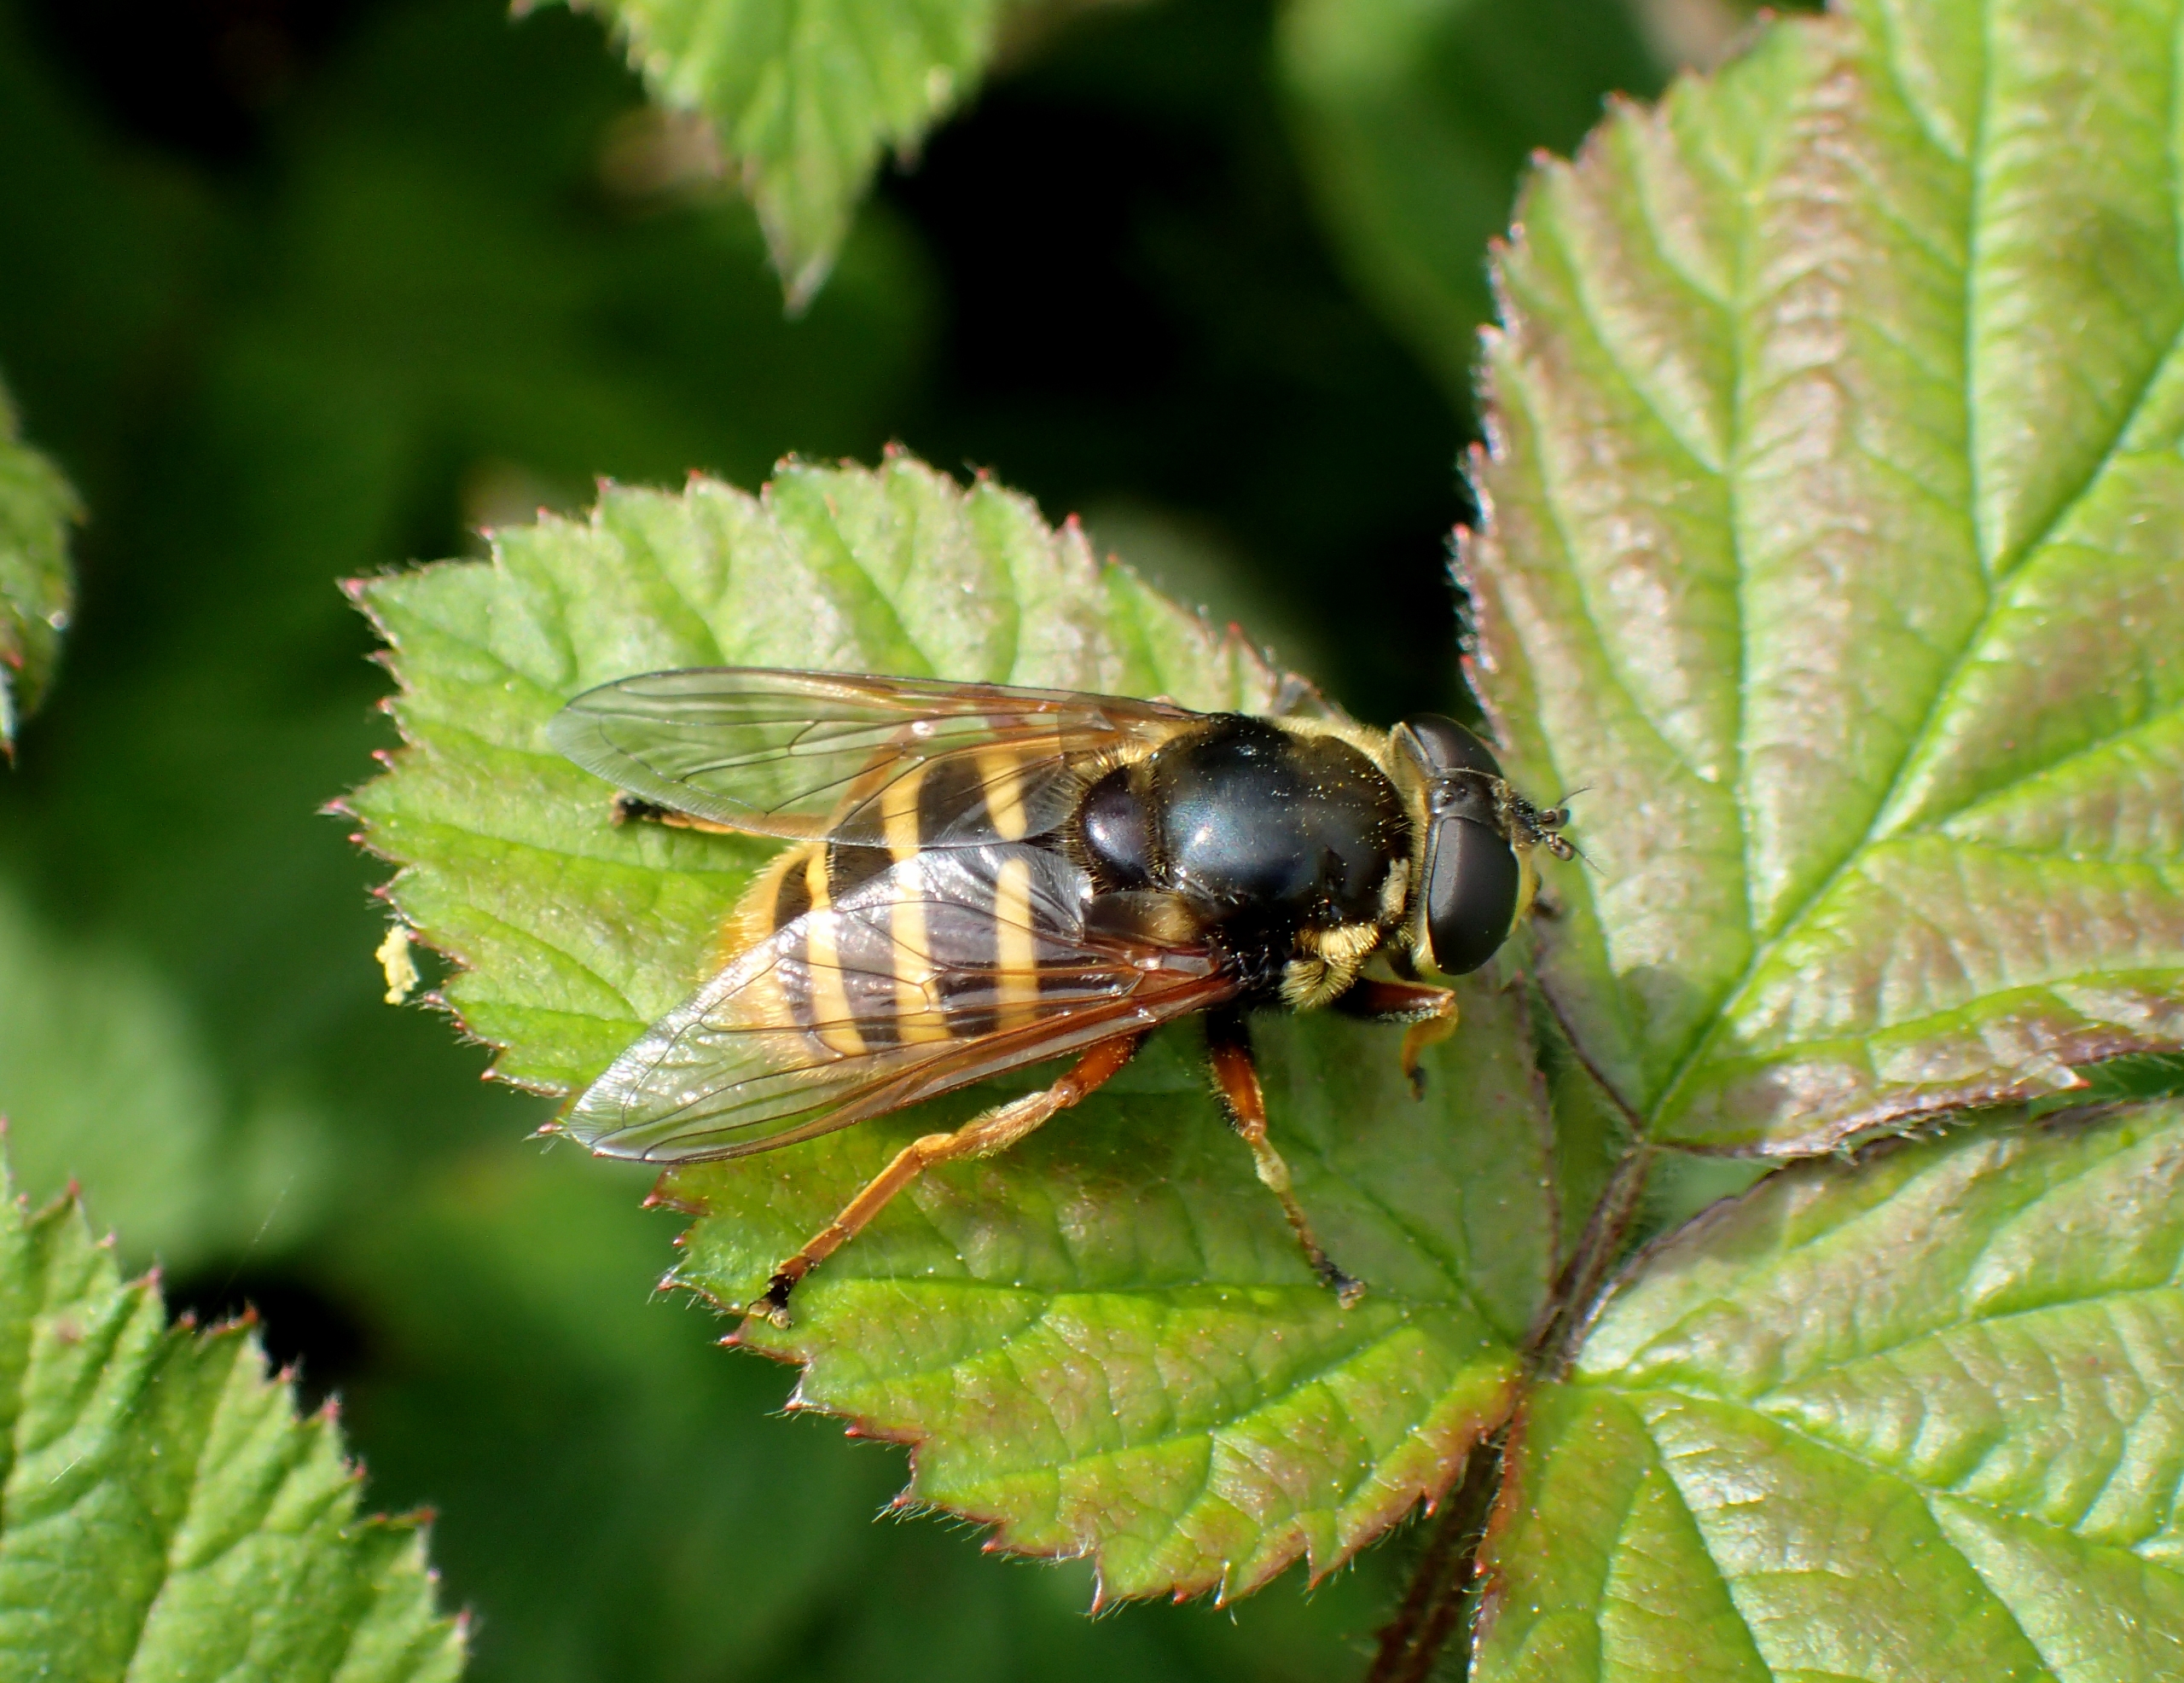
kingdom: Animalia
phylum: Arthropoda
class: Insecta
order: Diptera
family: Syrphidae
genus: Sericomyia
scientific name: Sericomyia silentis
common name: Tørve-silkesvirreflue
